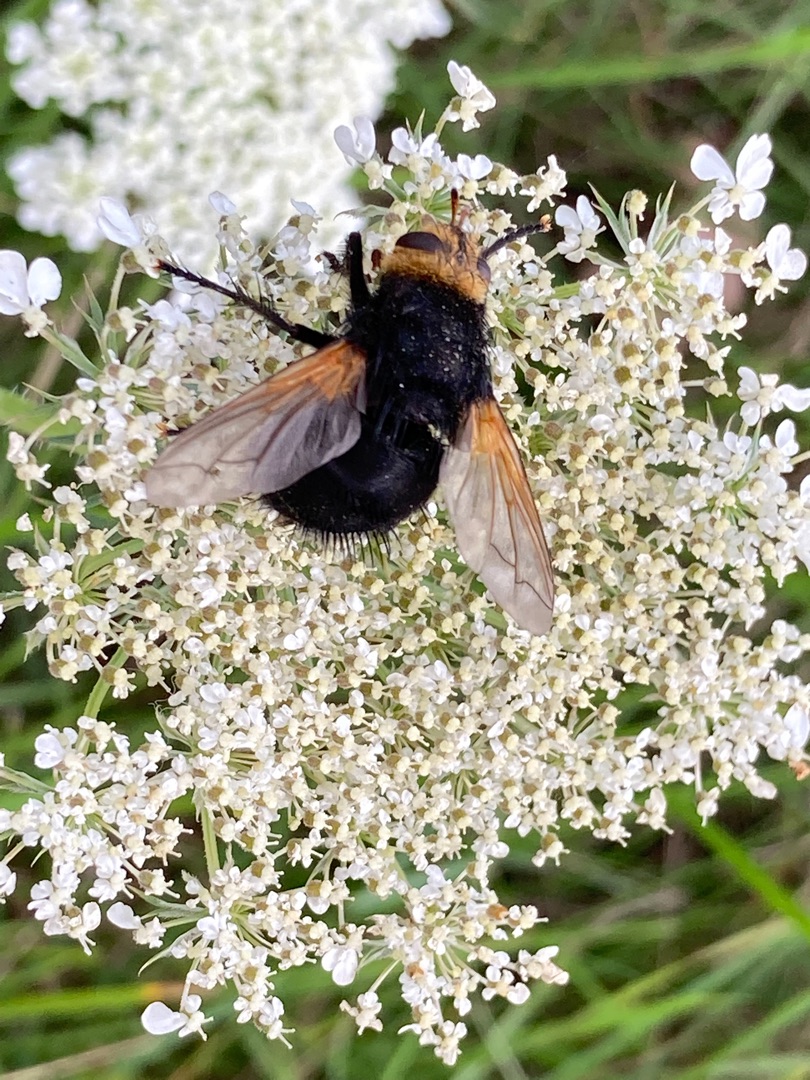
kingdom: Animalia
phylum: Arthropoda
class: Insecta
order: Diptera
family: Tachinidae
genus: Tachina
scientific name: Tachina grossa
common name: Kæmpefluen Harald
